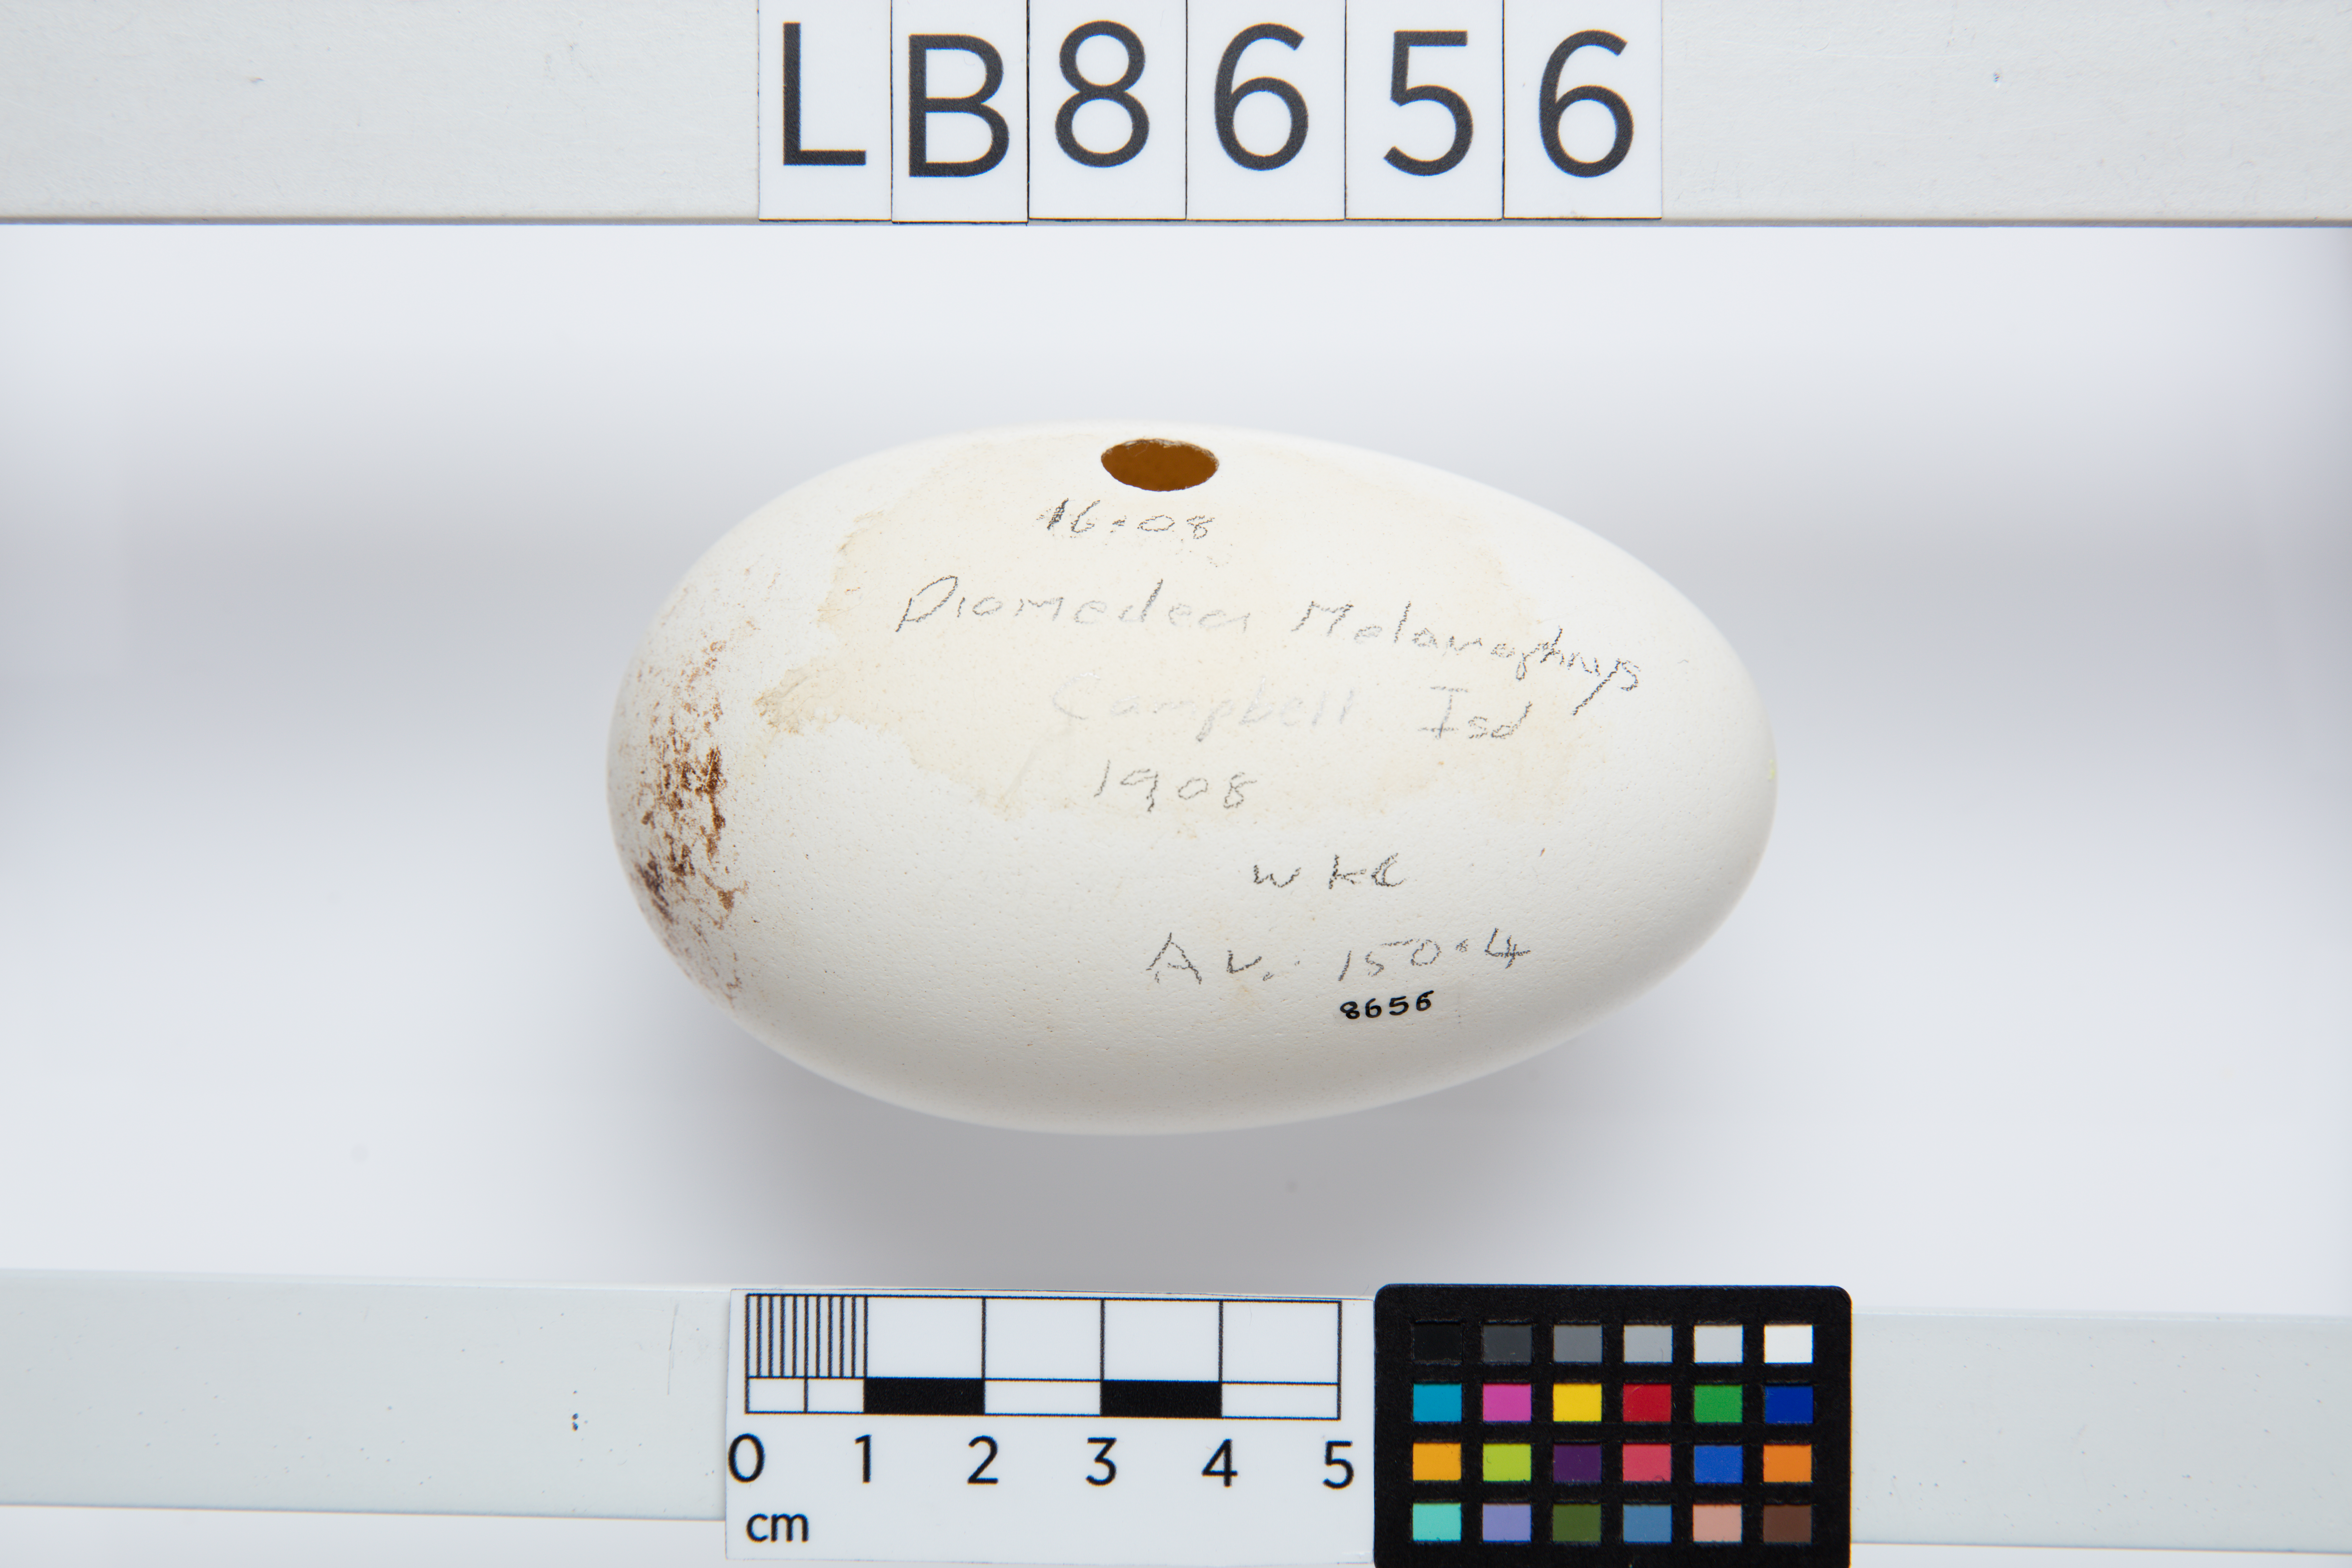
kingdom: Animalia
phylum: Chordata
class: Aves
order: Procellariiformes
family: Diomedeidae
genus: Thalassarche
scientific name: Thalassarche melanophris
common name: Black-browed albatross
